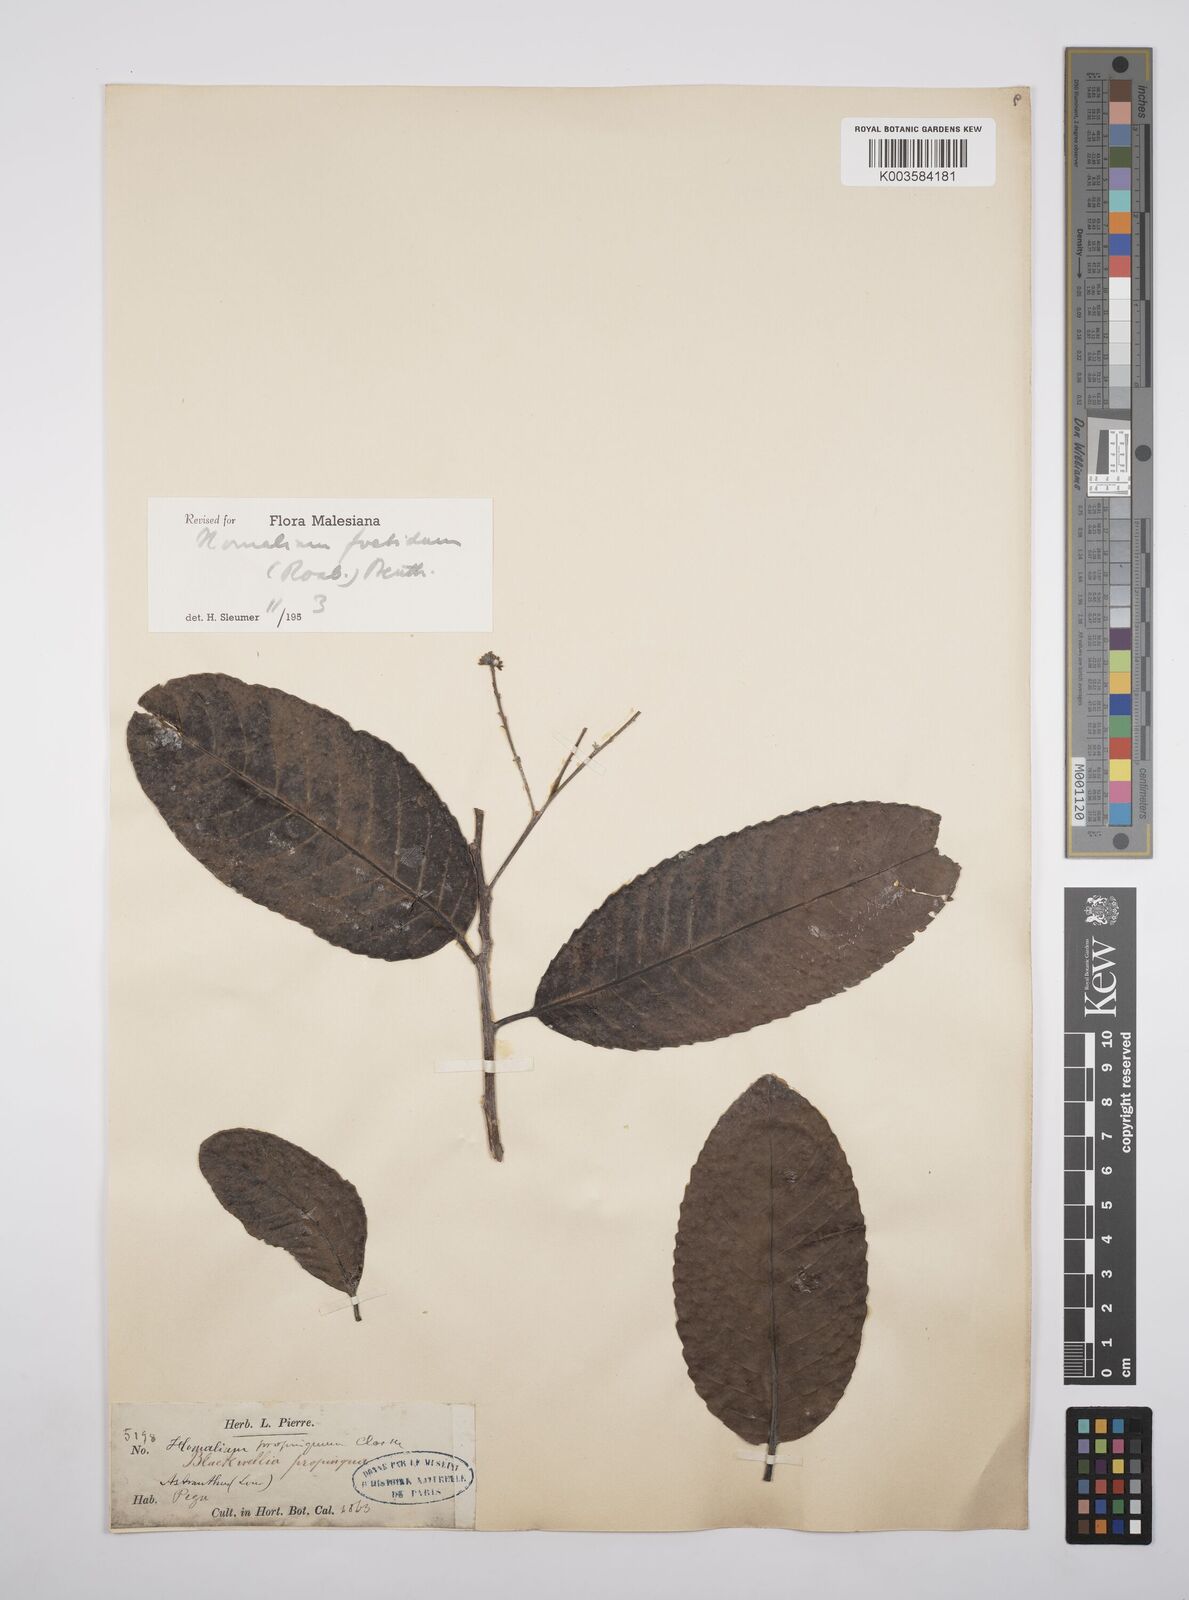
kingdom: Plantae
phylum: Tracheophyta
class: Magnoliopsida
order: Malpighiales
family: Salicaceae
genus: Homalium
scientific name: Homalium foetidum
